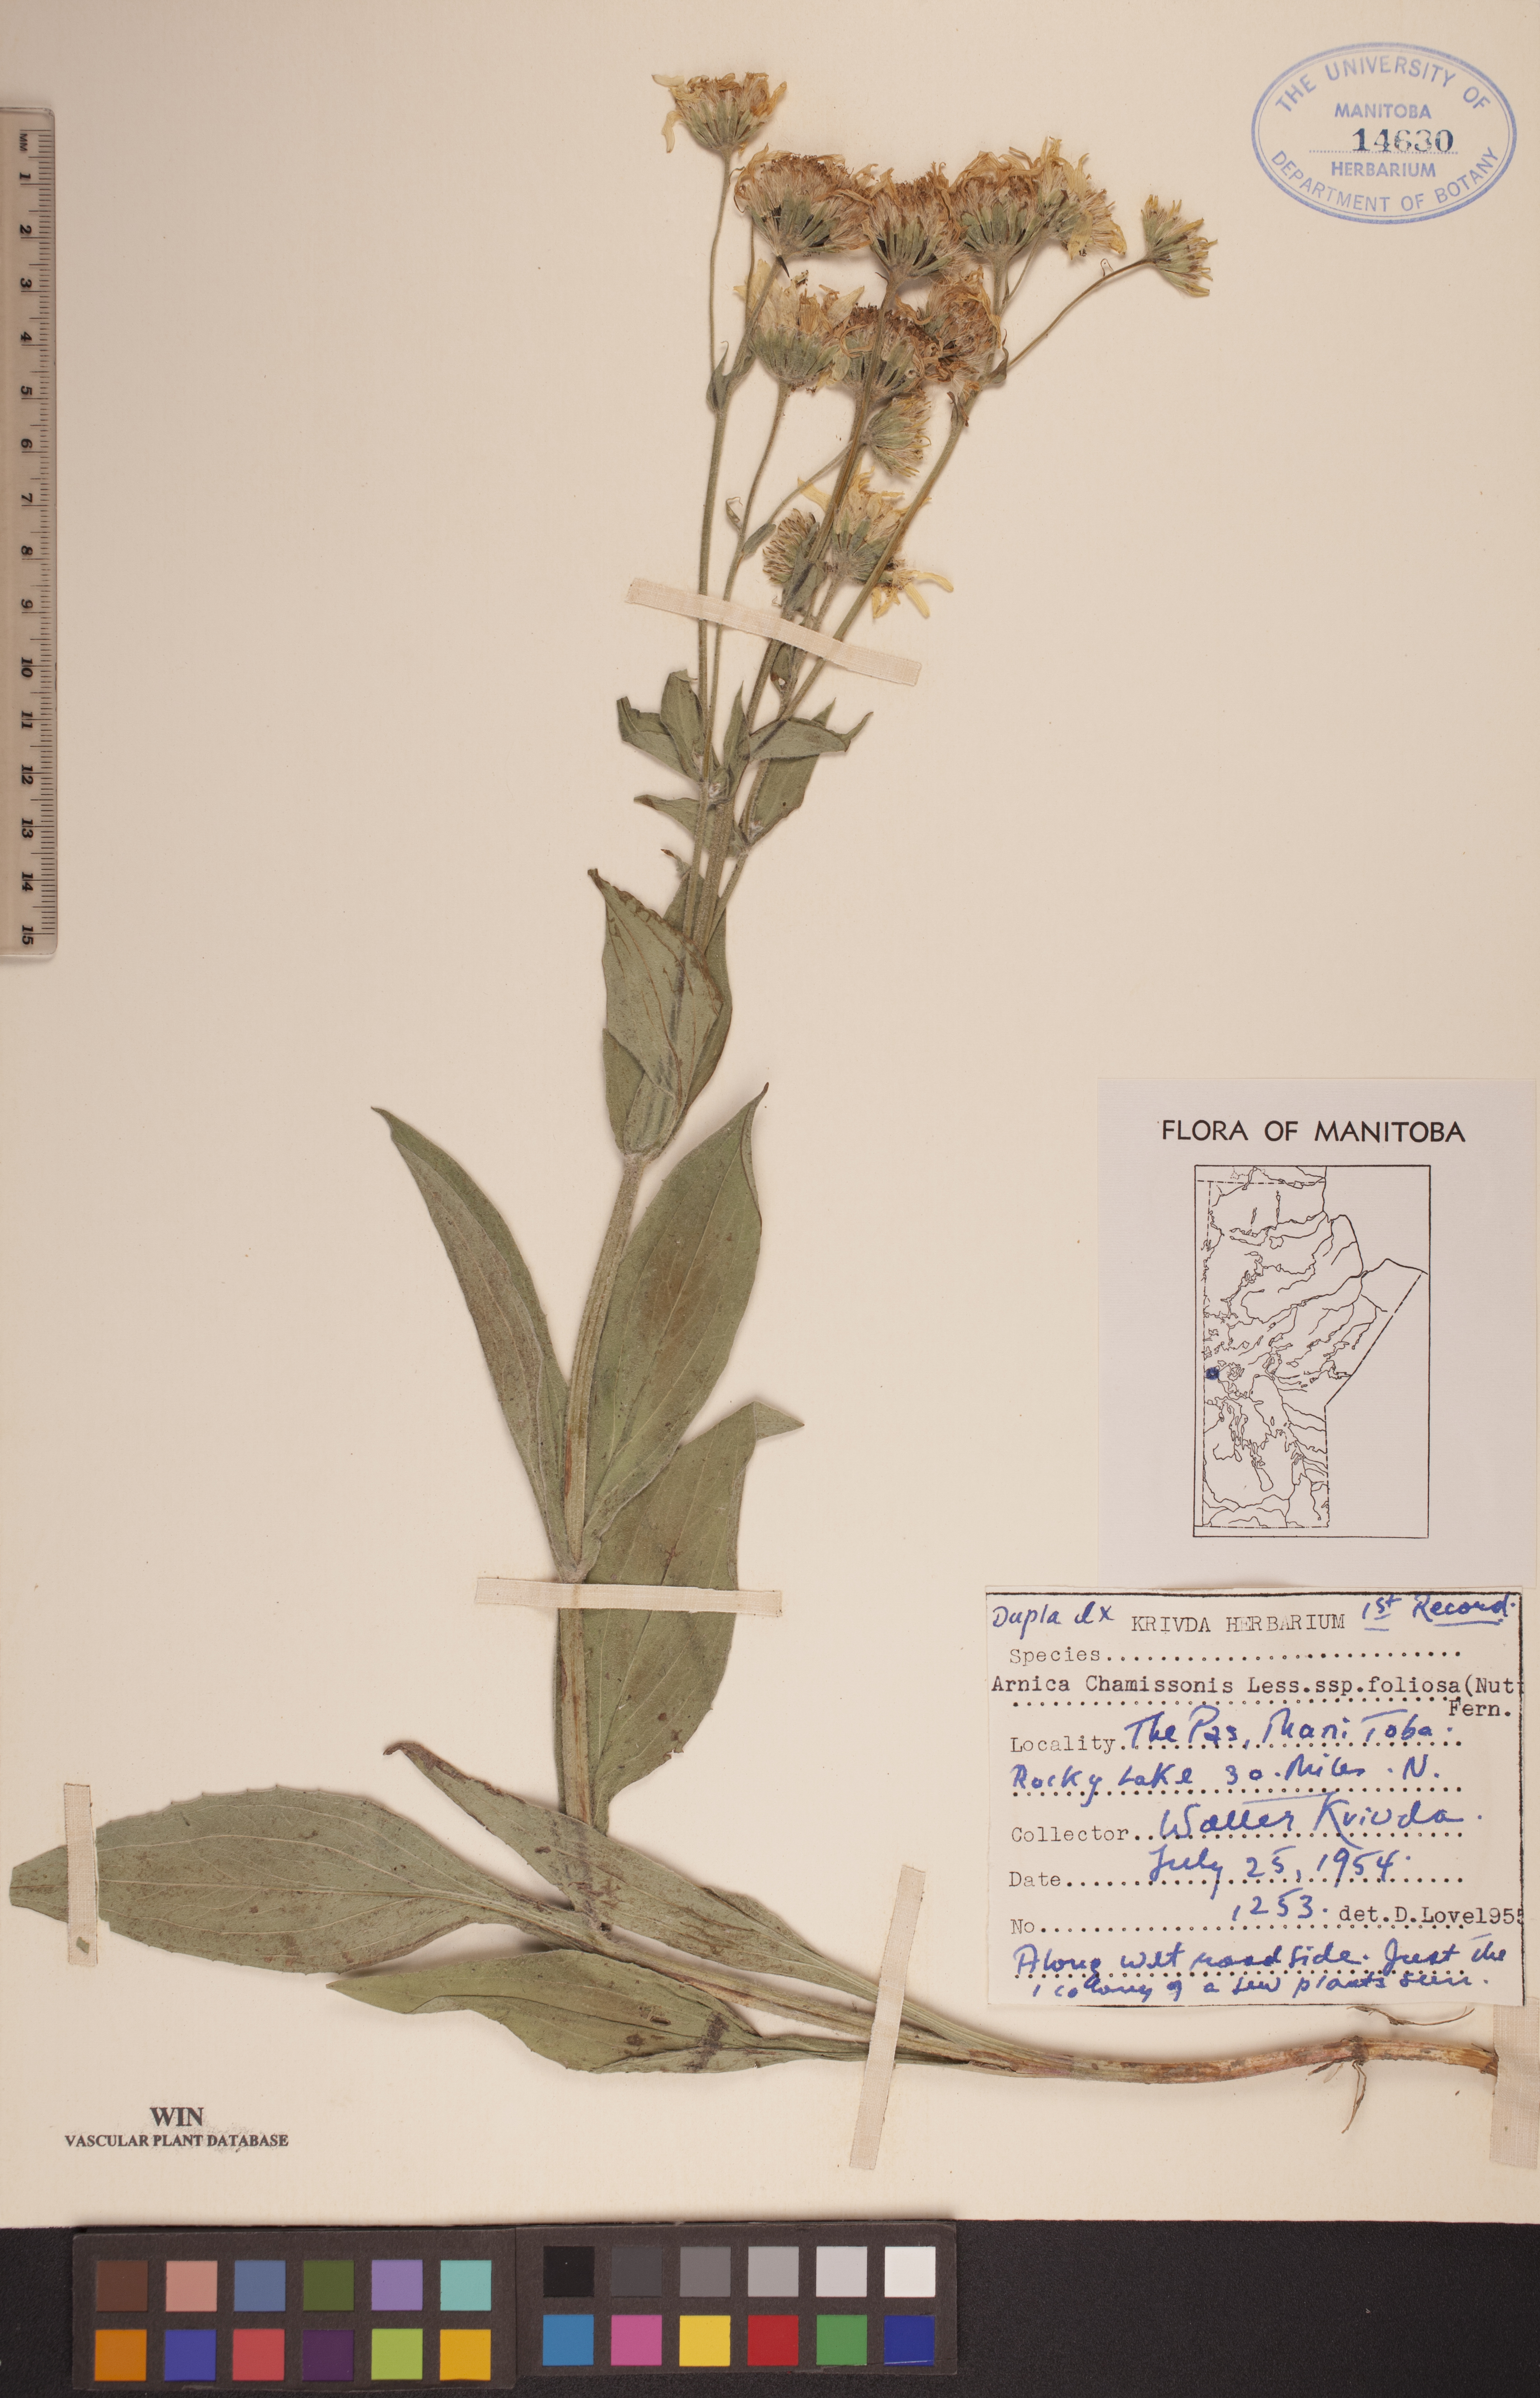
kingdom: Plantae
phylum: Tracheophyta
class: Magnoliopsida
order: Asterales
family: Asteraceae
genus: Arnica
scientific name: Arnica chamissonis
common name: Leafy arnica
